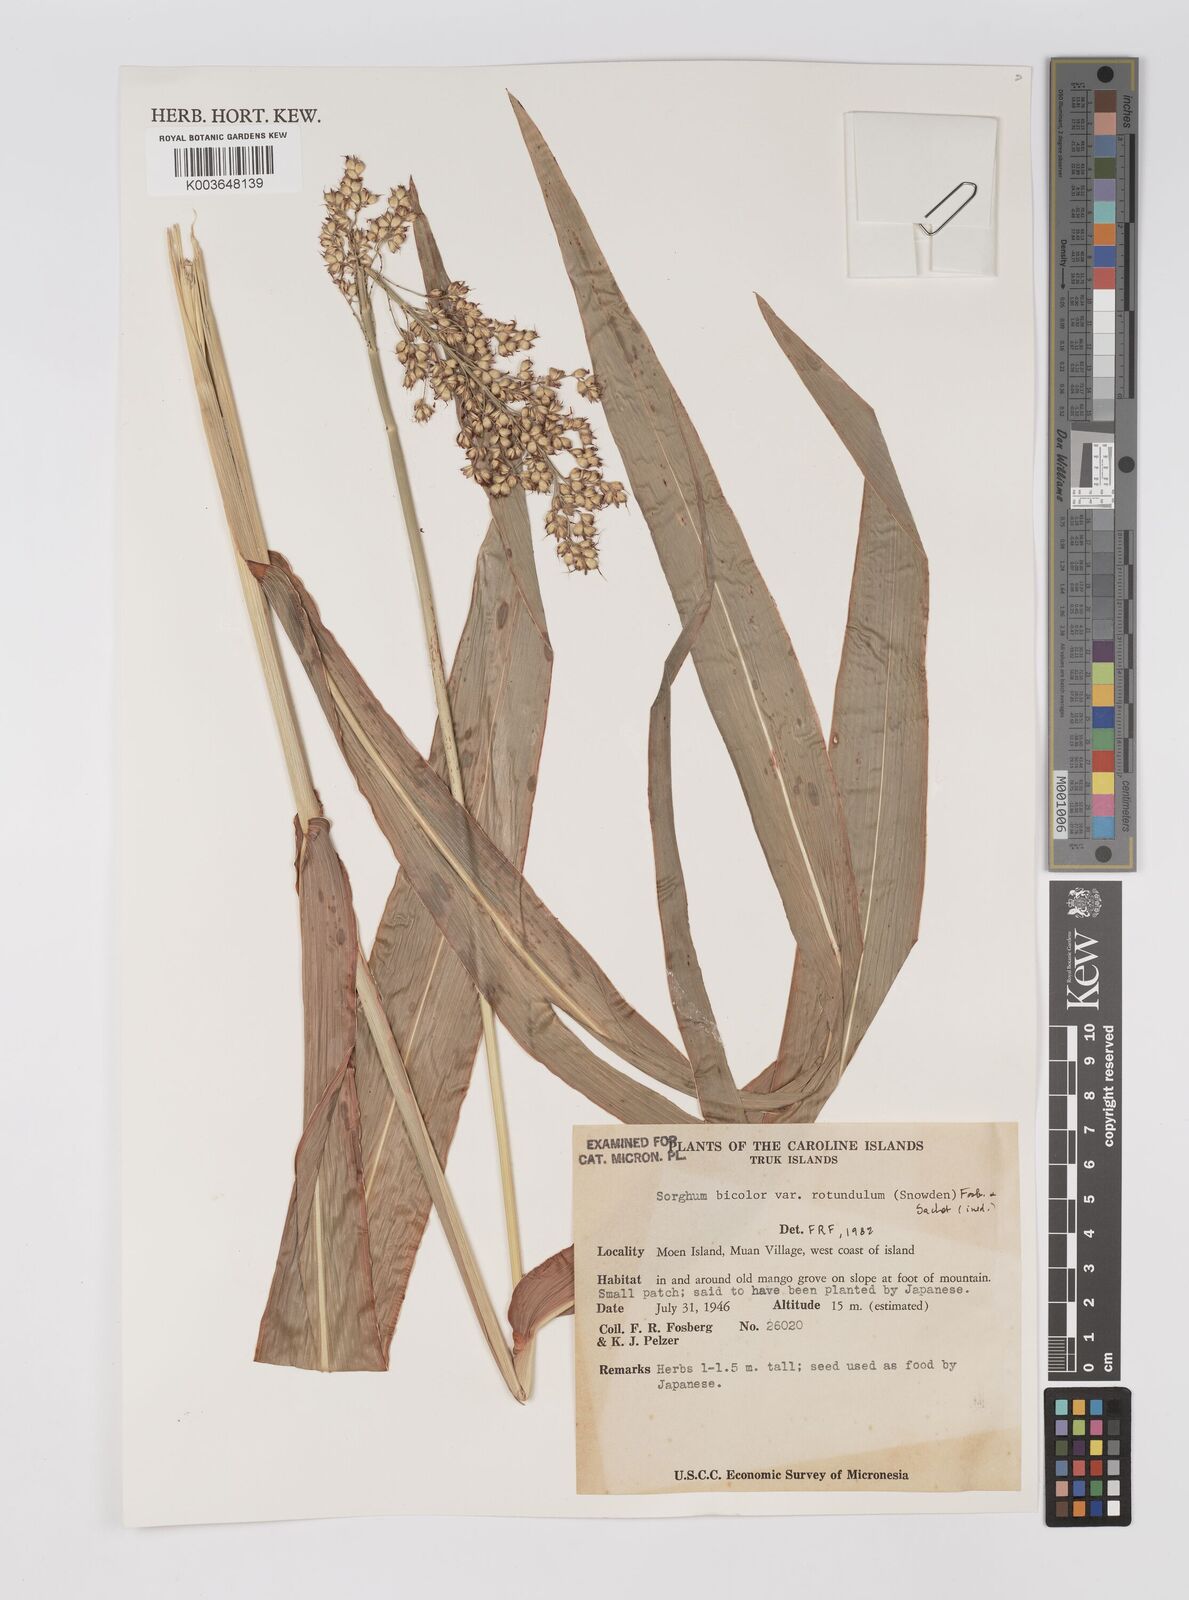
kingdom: Plantae
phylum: Tracheophyta
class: Liliopsida
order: Poales
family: Poaceae
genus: Sorghum
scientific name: Sorghum bicolor
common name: Sorghum
